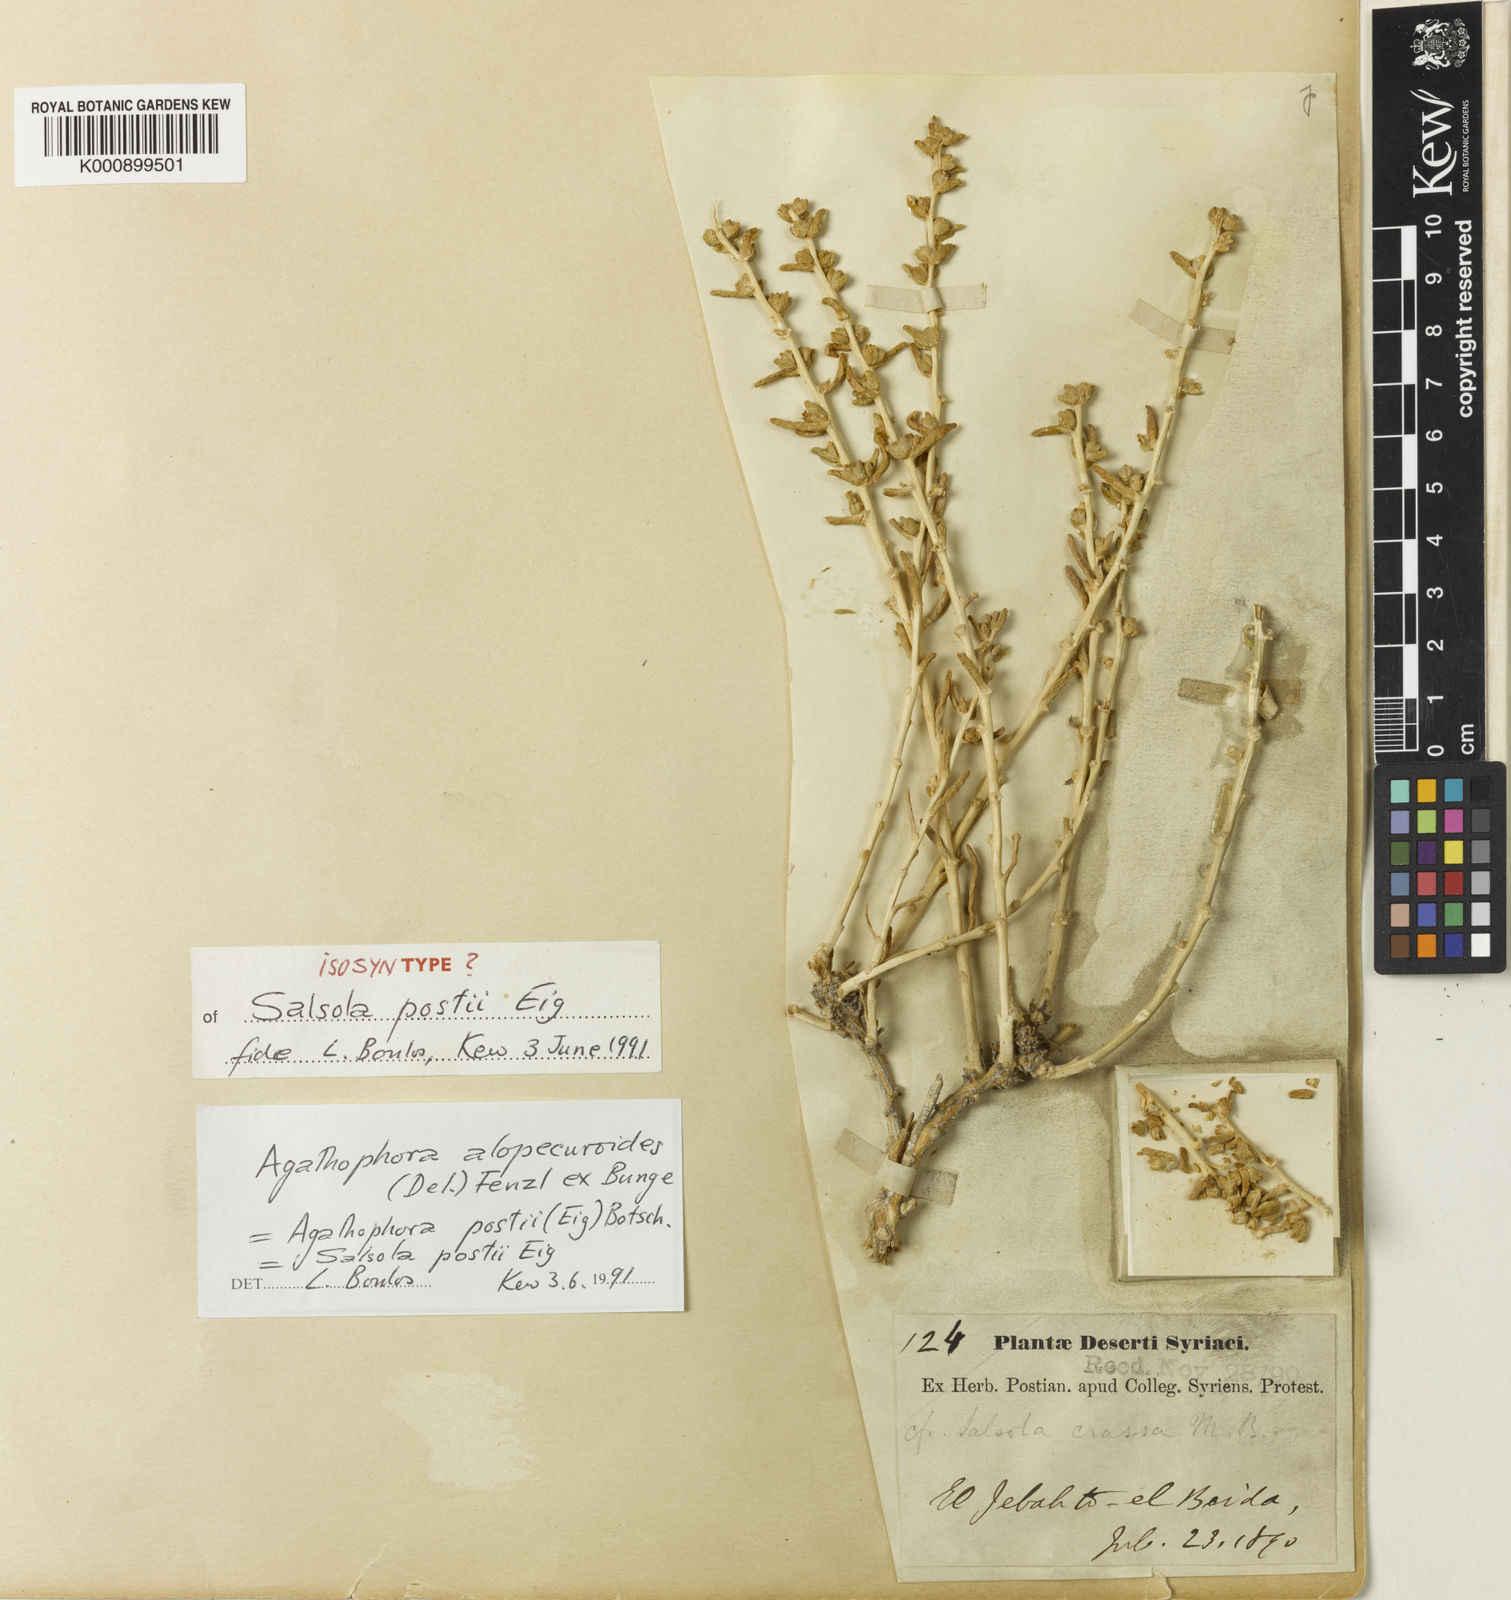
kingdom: Plantae
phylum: Tracheophyta
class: Magnoliopsida
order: Caryophyllales
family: Amaranthaceae
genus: Halogeton
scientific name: Halogeton alopecuroides
